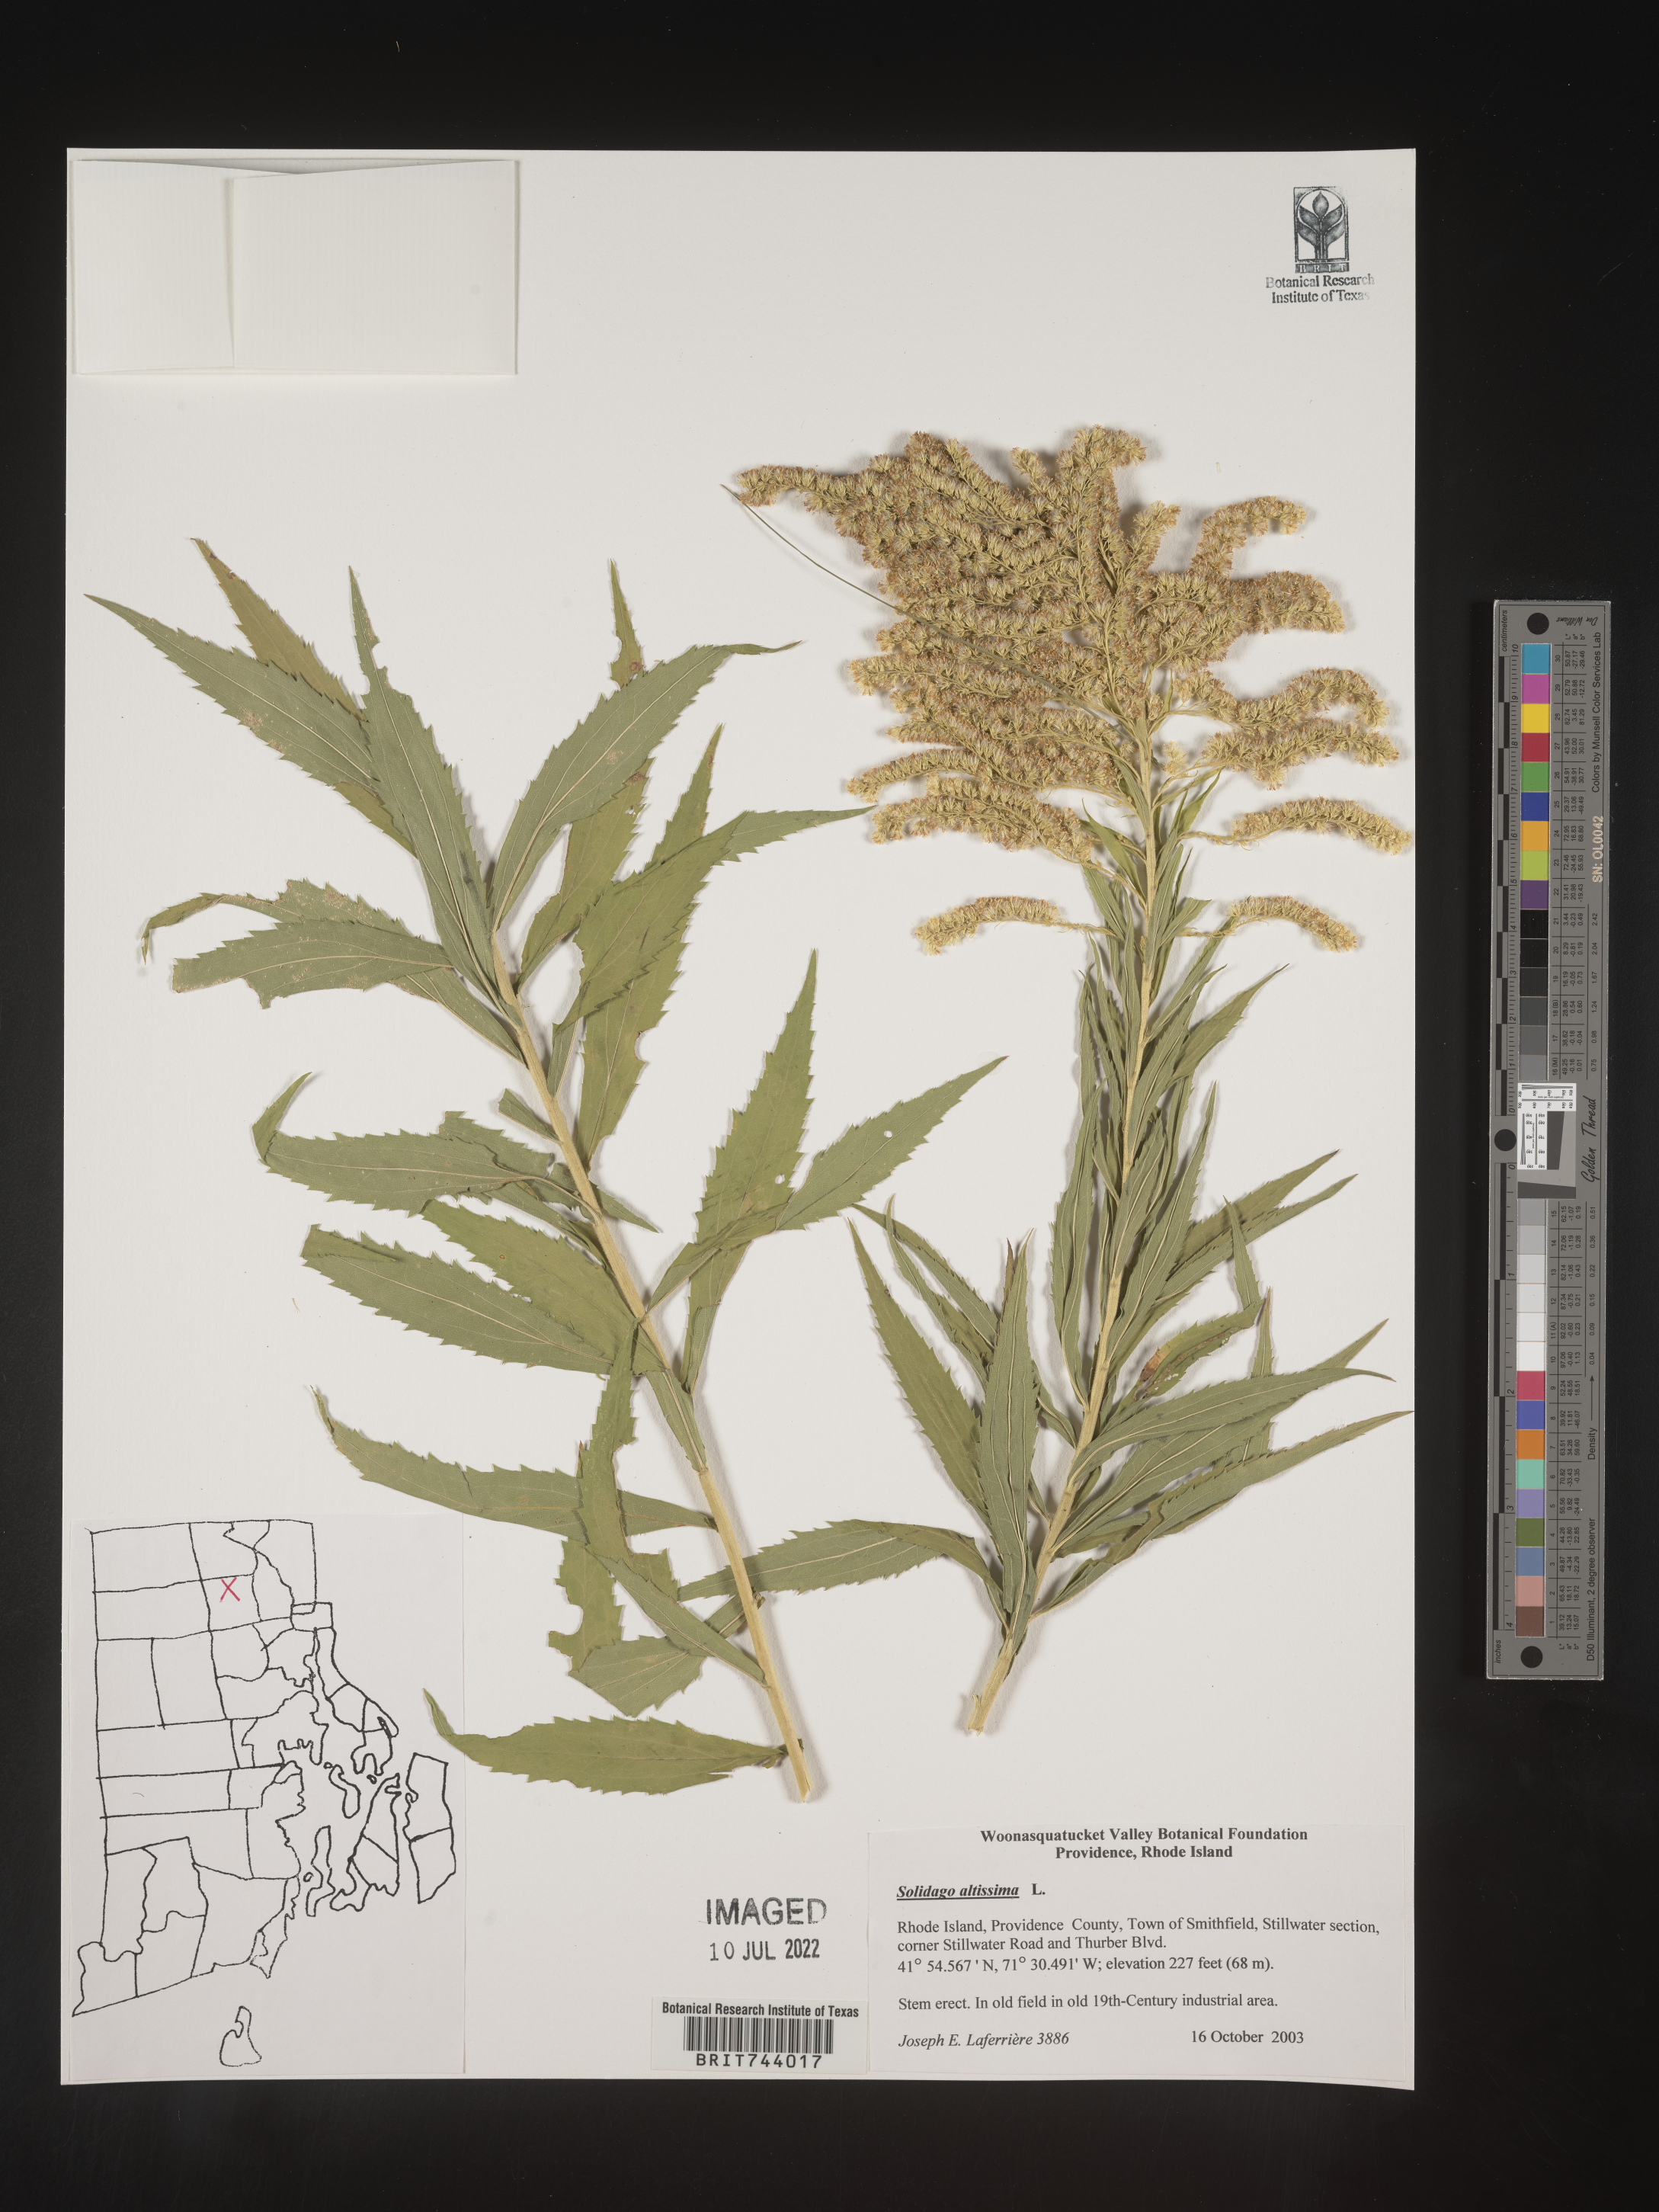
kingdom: Plantae
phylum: Tracheophyta
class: Magnoliopsida
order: Asterales
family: Asteraceae
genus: Solidago
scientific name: Solidago altissima
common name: Late goldenrod
